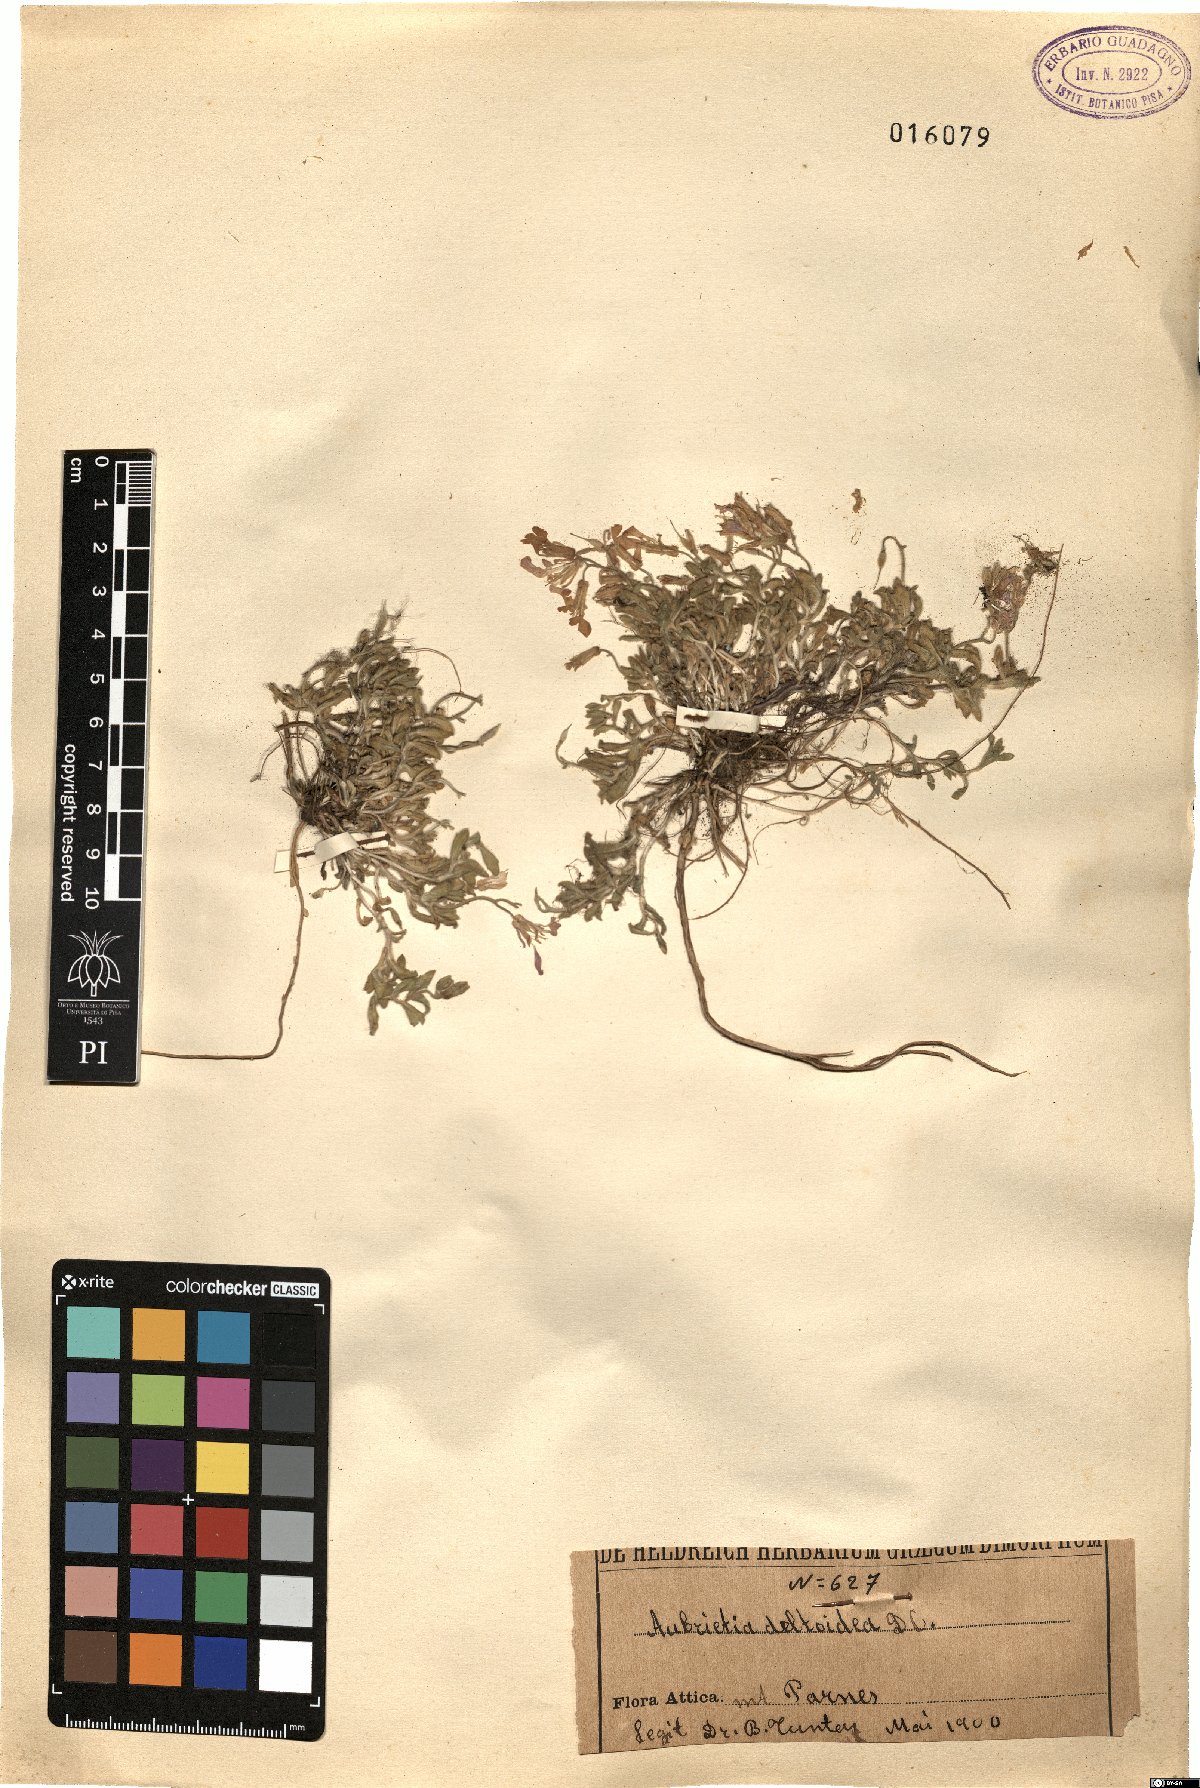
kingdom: Plantae
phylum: Tracheophyta
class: Magnoliopsida
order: Brassicales
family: Brassicaceae
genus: Aubrieta
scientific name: Aubrieta deltoidea
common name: Aubretia
